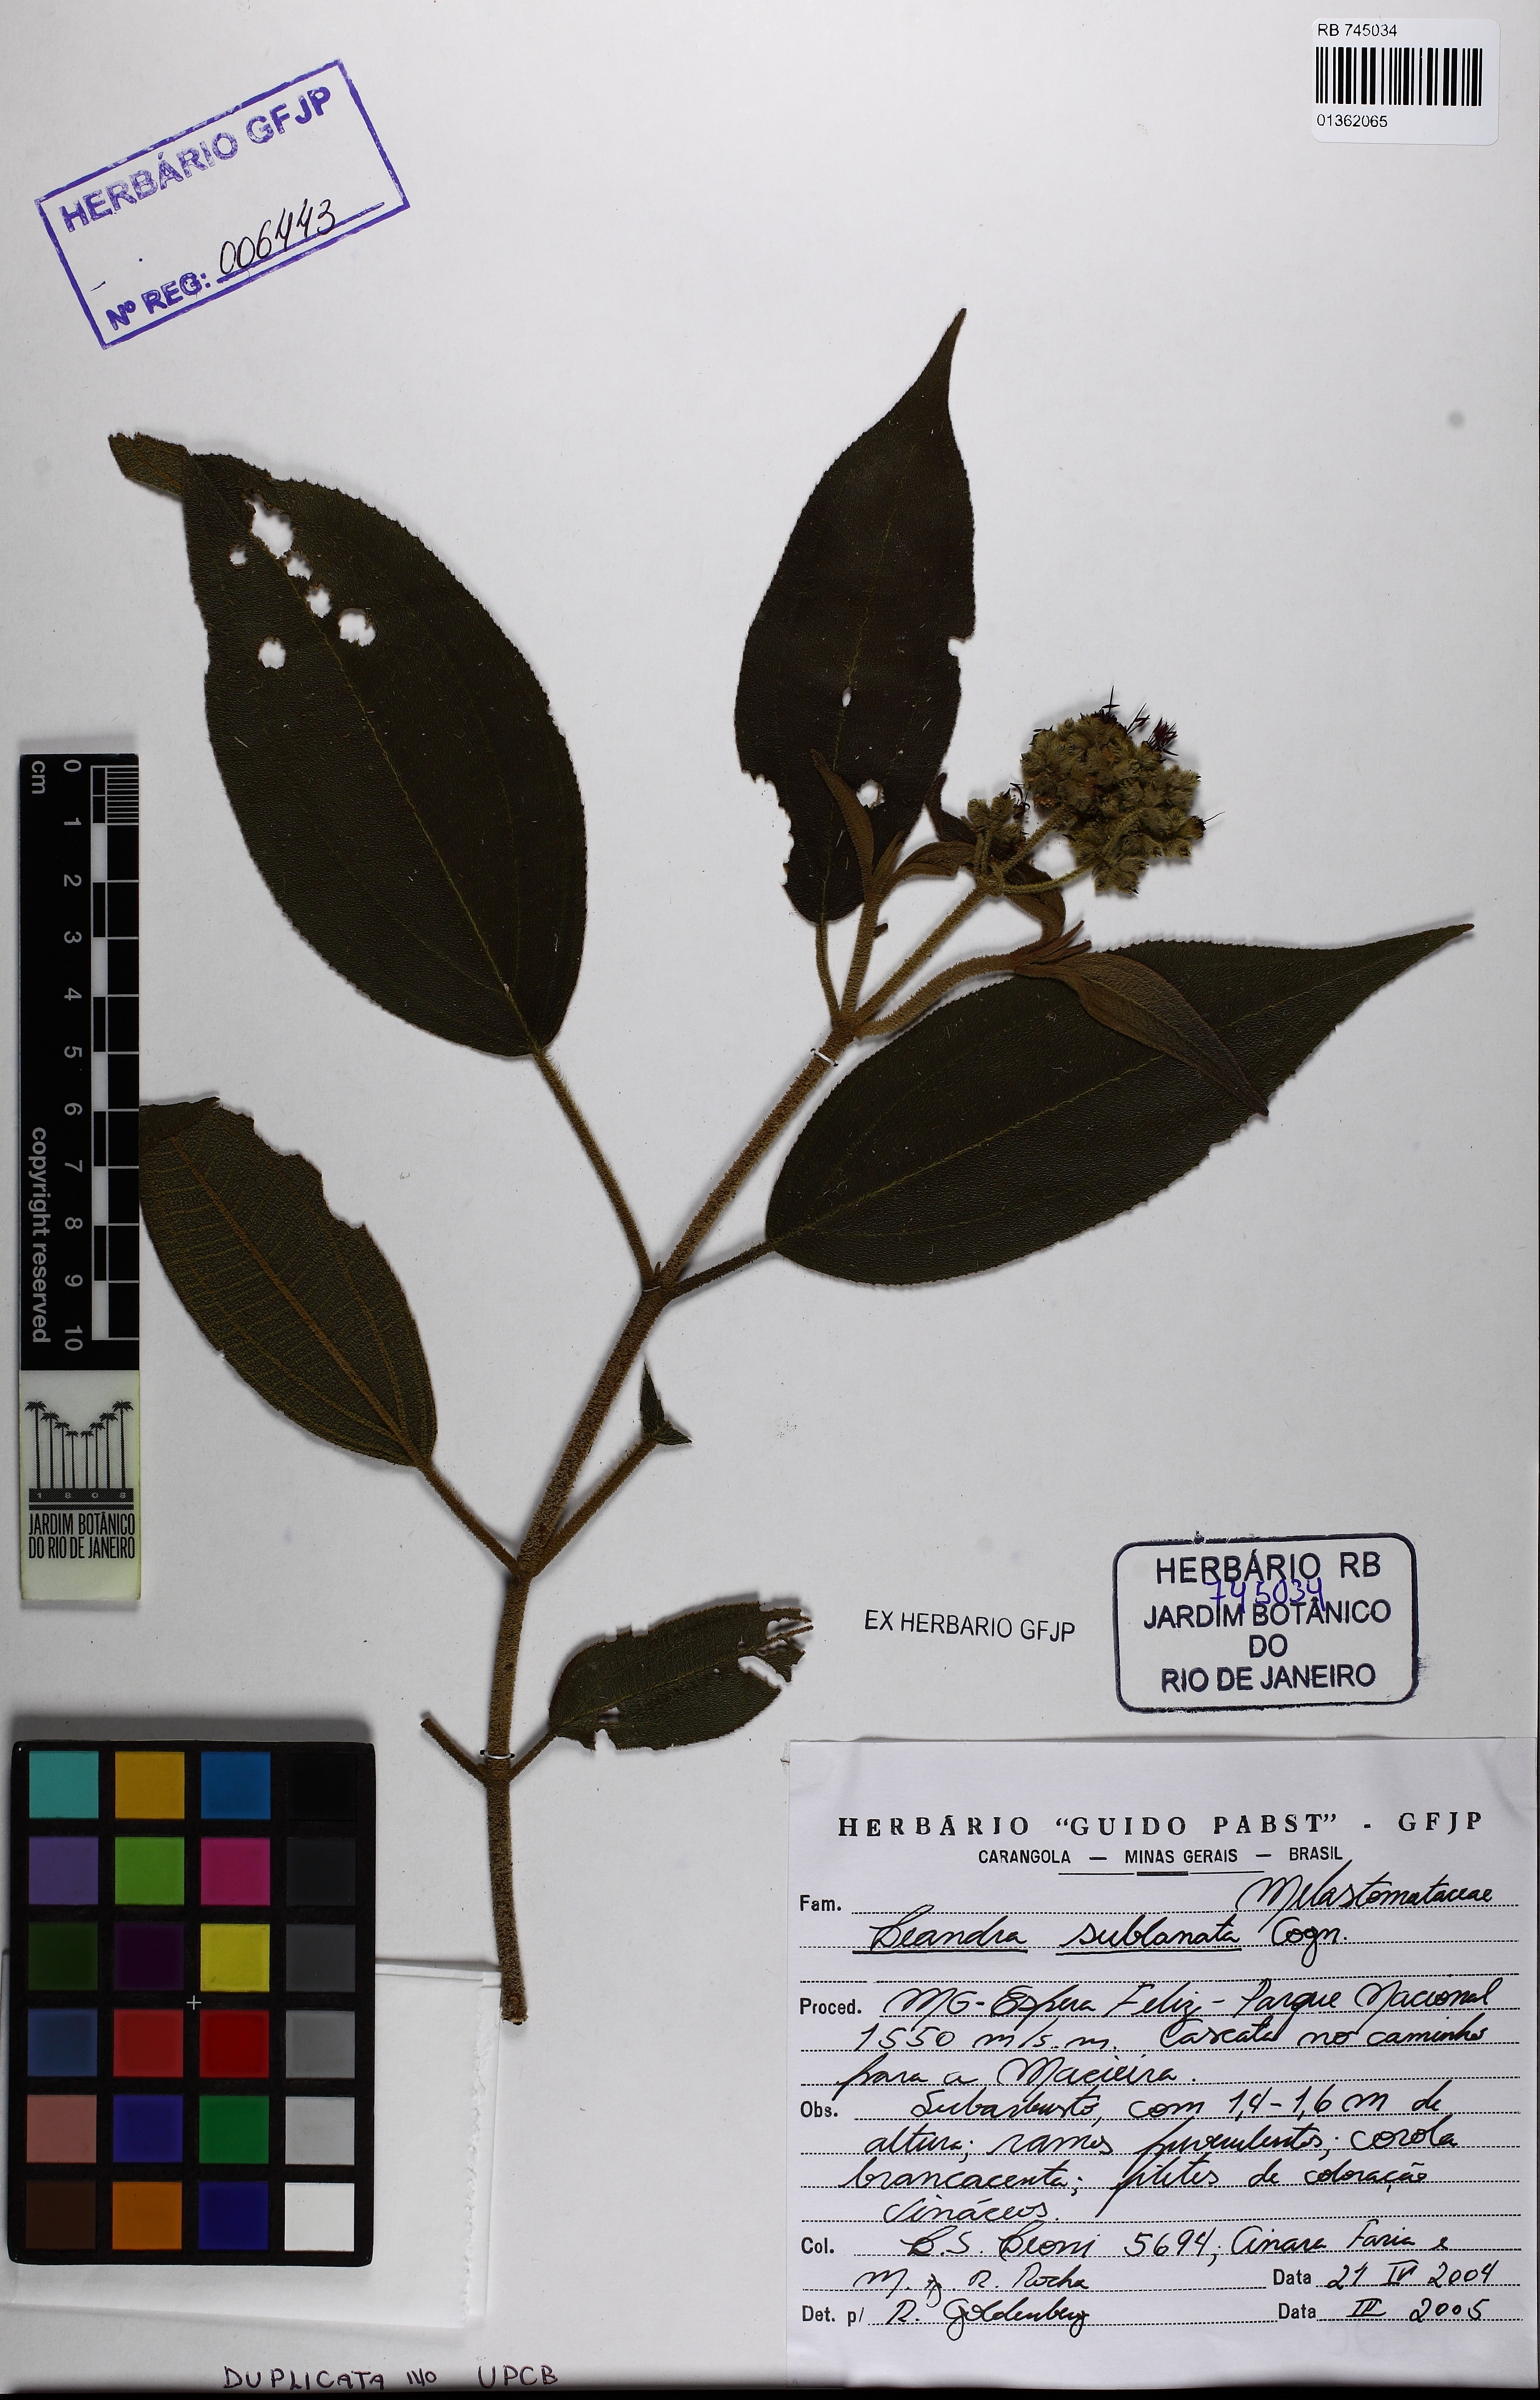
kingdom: Plantae
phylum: Tracheophyta
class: Magnoliopsida
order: Myrtales
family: Melastomataceae
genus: Miconia
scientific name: Miconia sublanata
